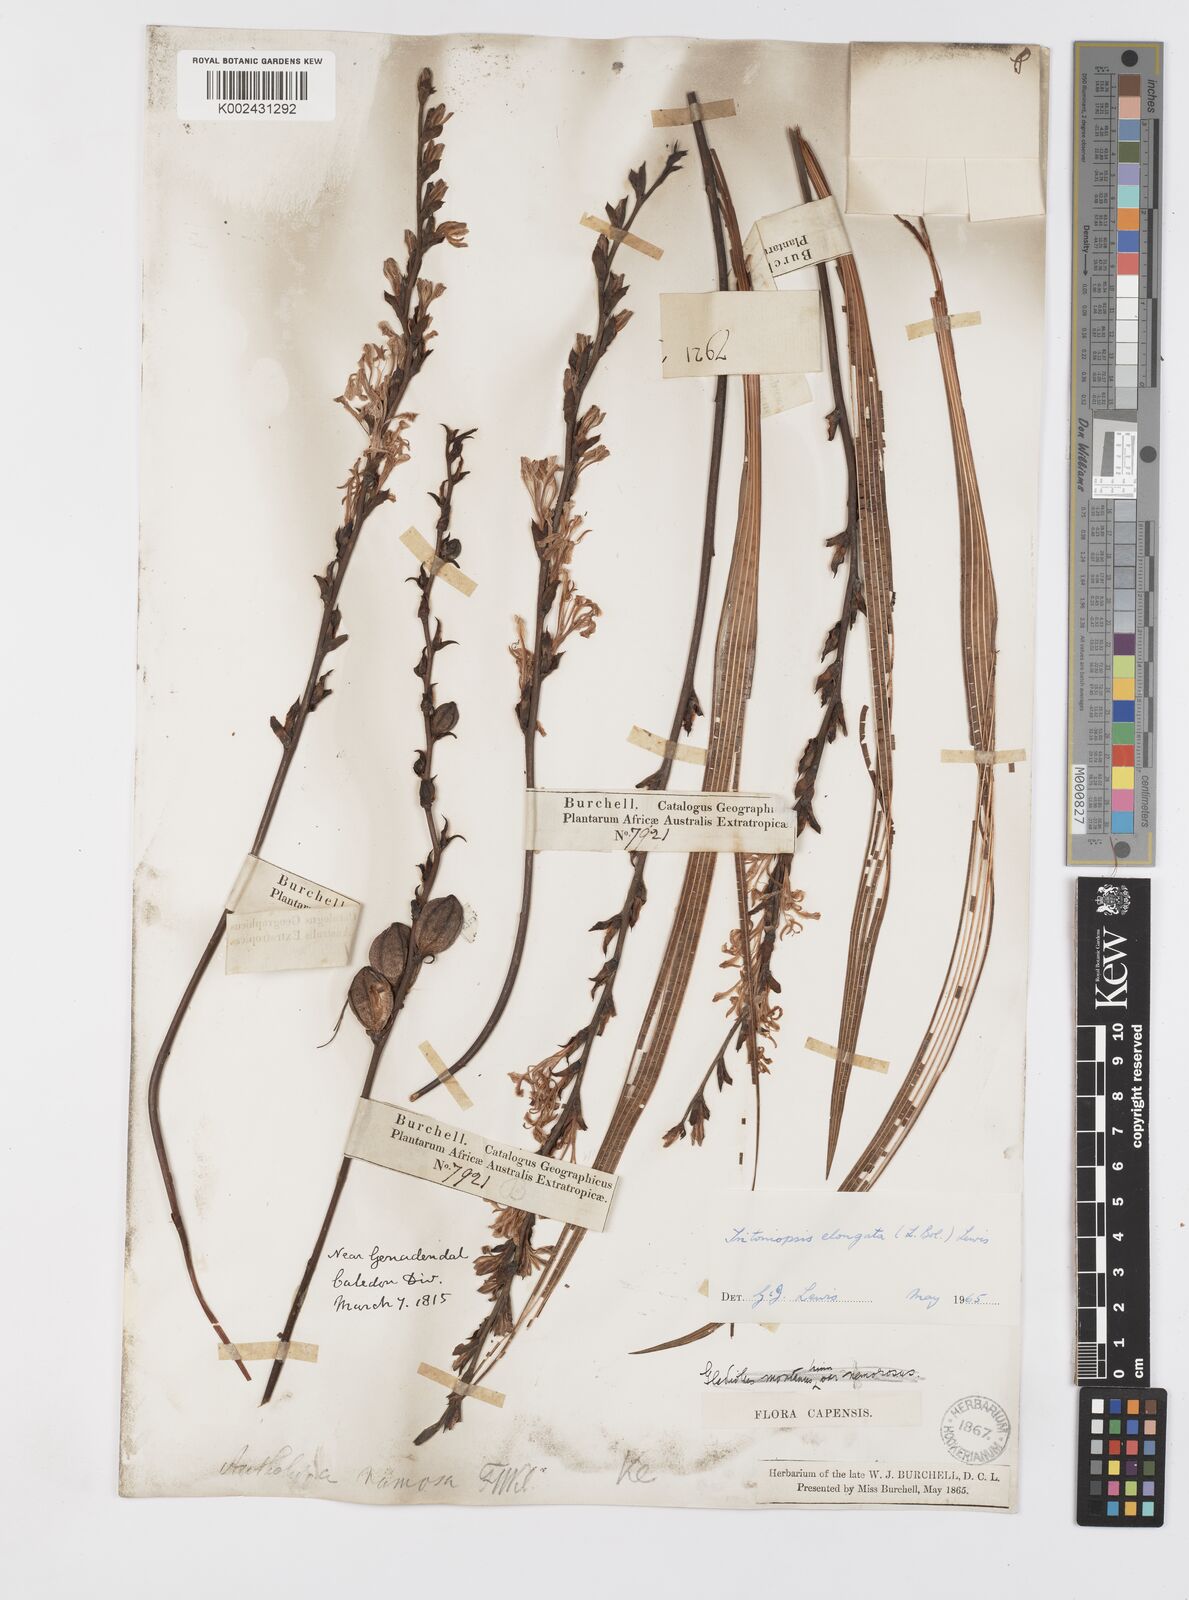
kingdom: Plantae
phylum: Tracheophyta
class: Liliopsida
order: Asparagales
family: Iridaceae
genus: Tritoniopsis
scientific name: Tritoniopsis elongata
